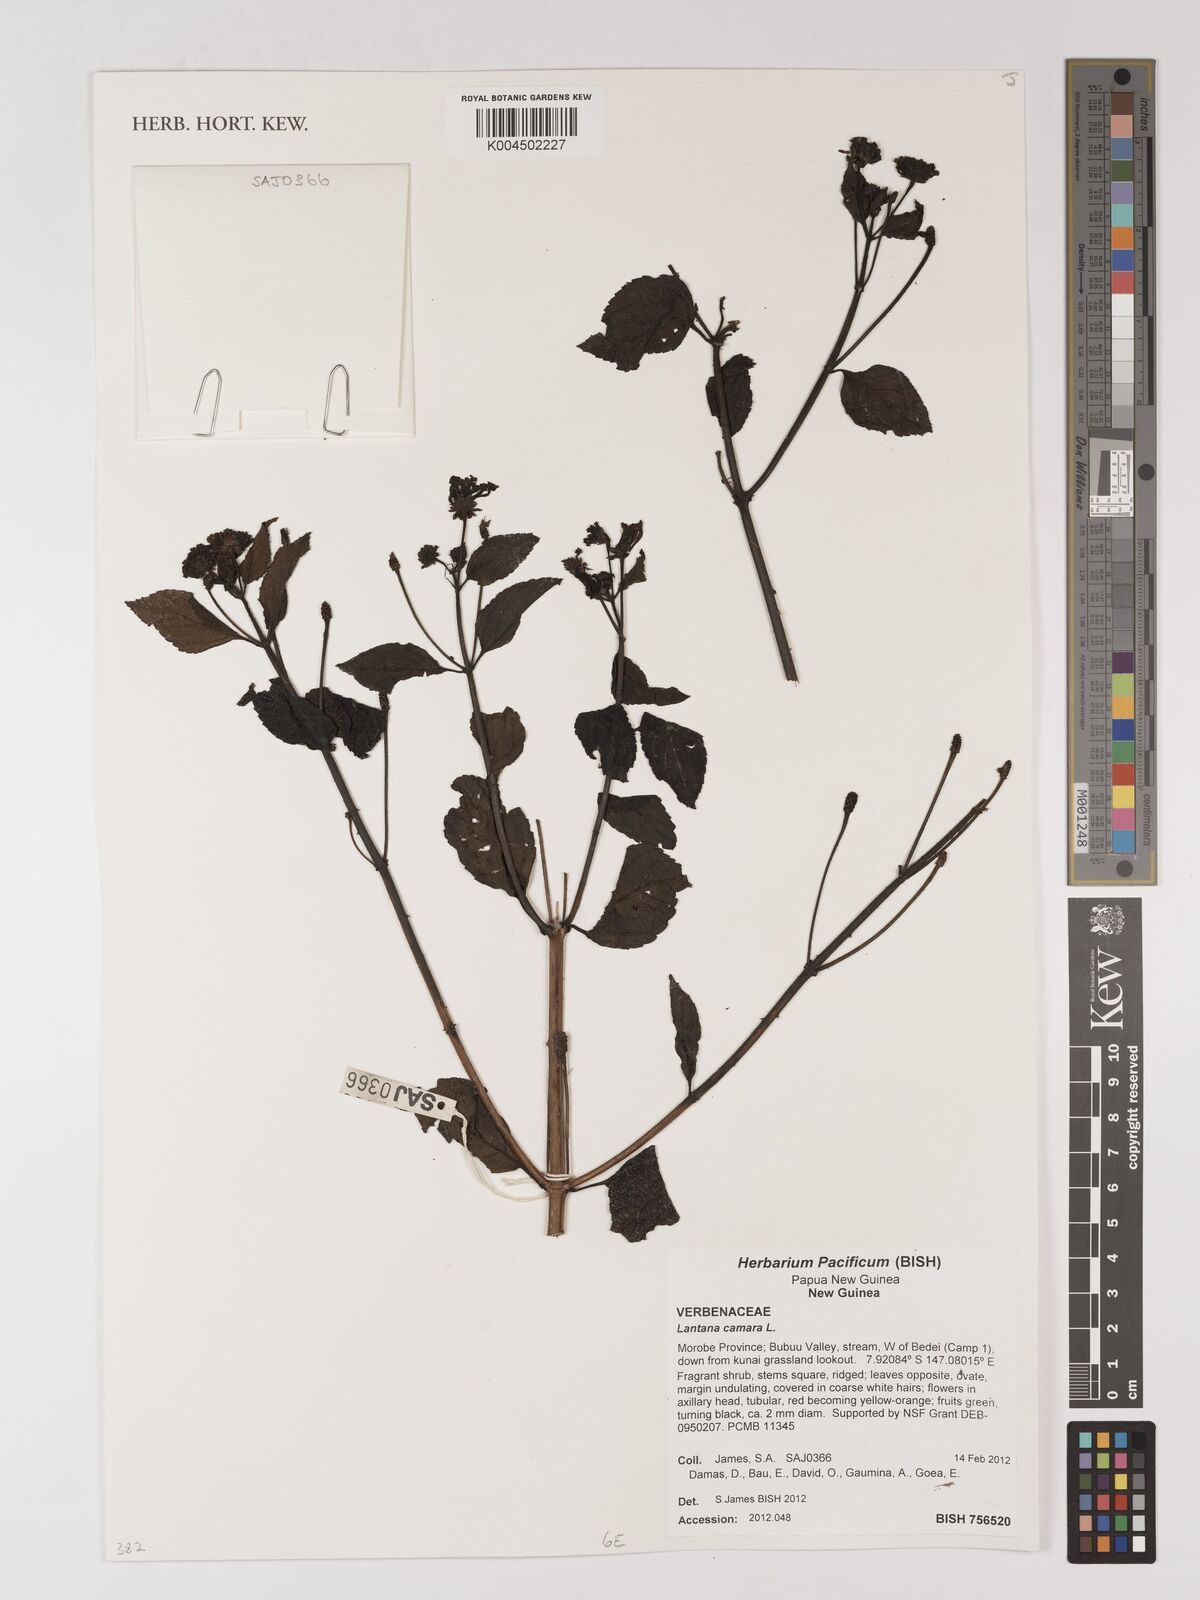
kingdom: Plantae
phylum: Tracheophyta
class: Magnoliopsida
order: Lamiales
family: Verbenaceae
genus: Lantana
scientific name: Lantana camara
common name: Lantana
